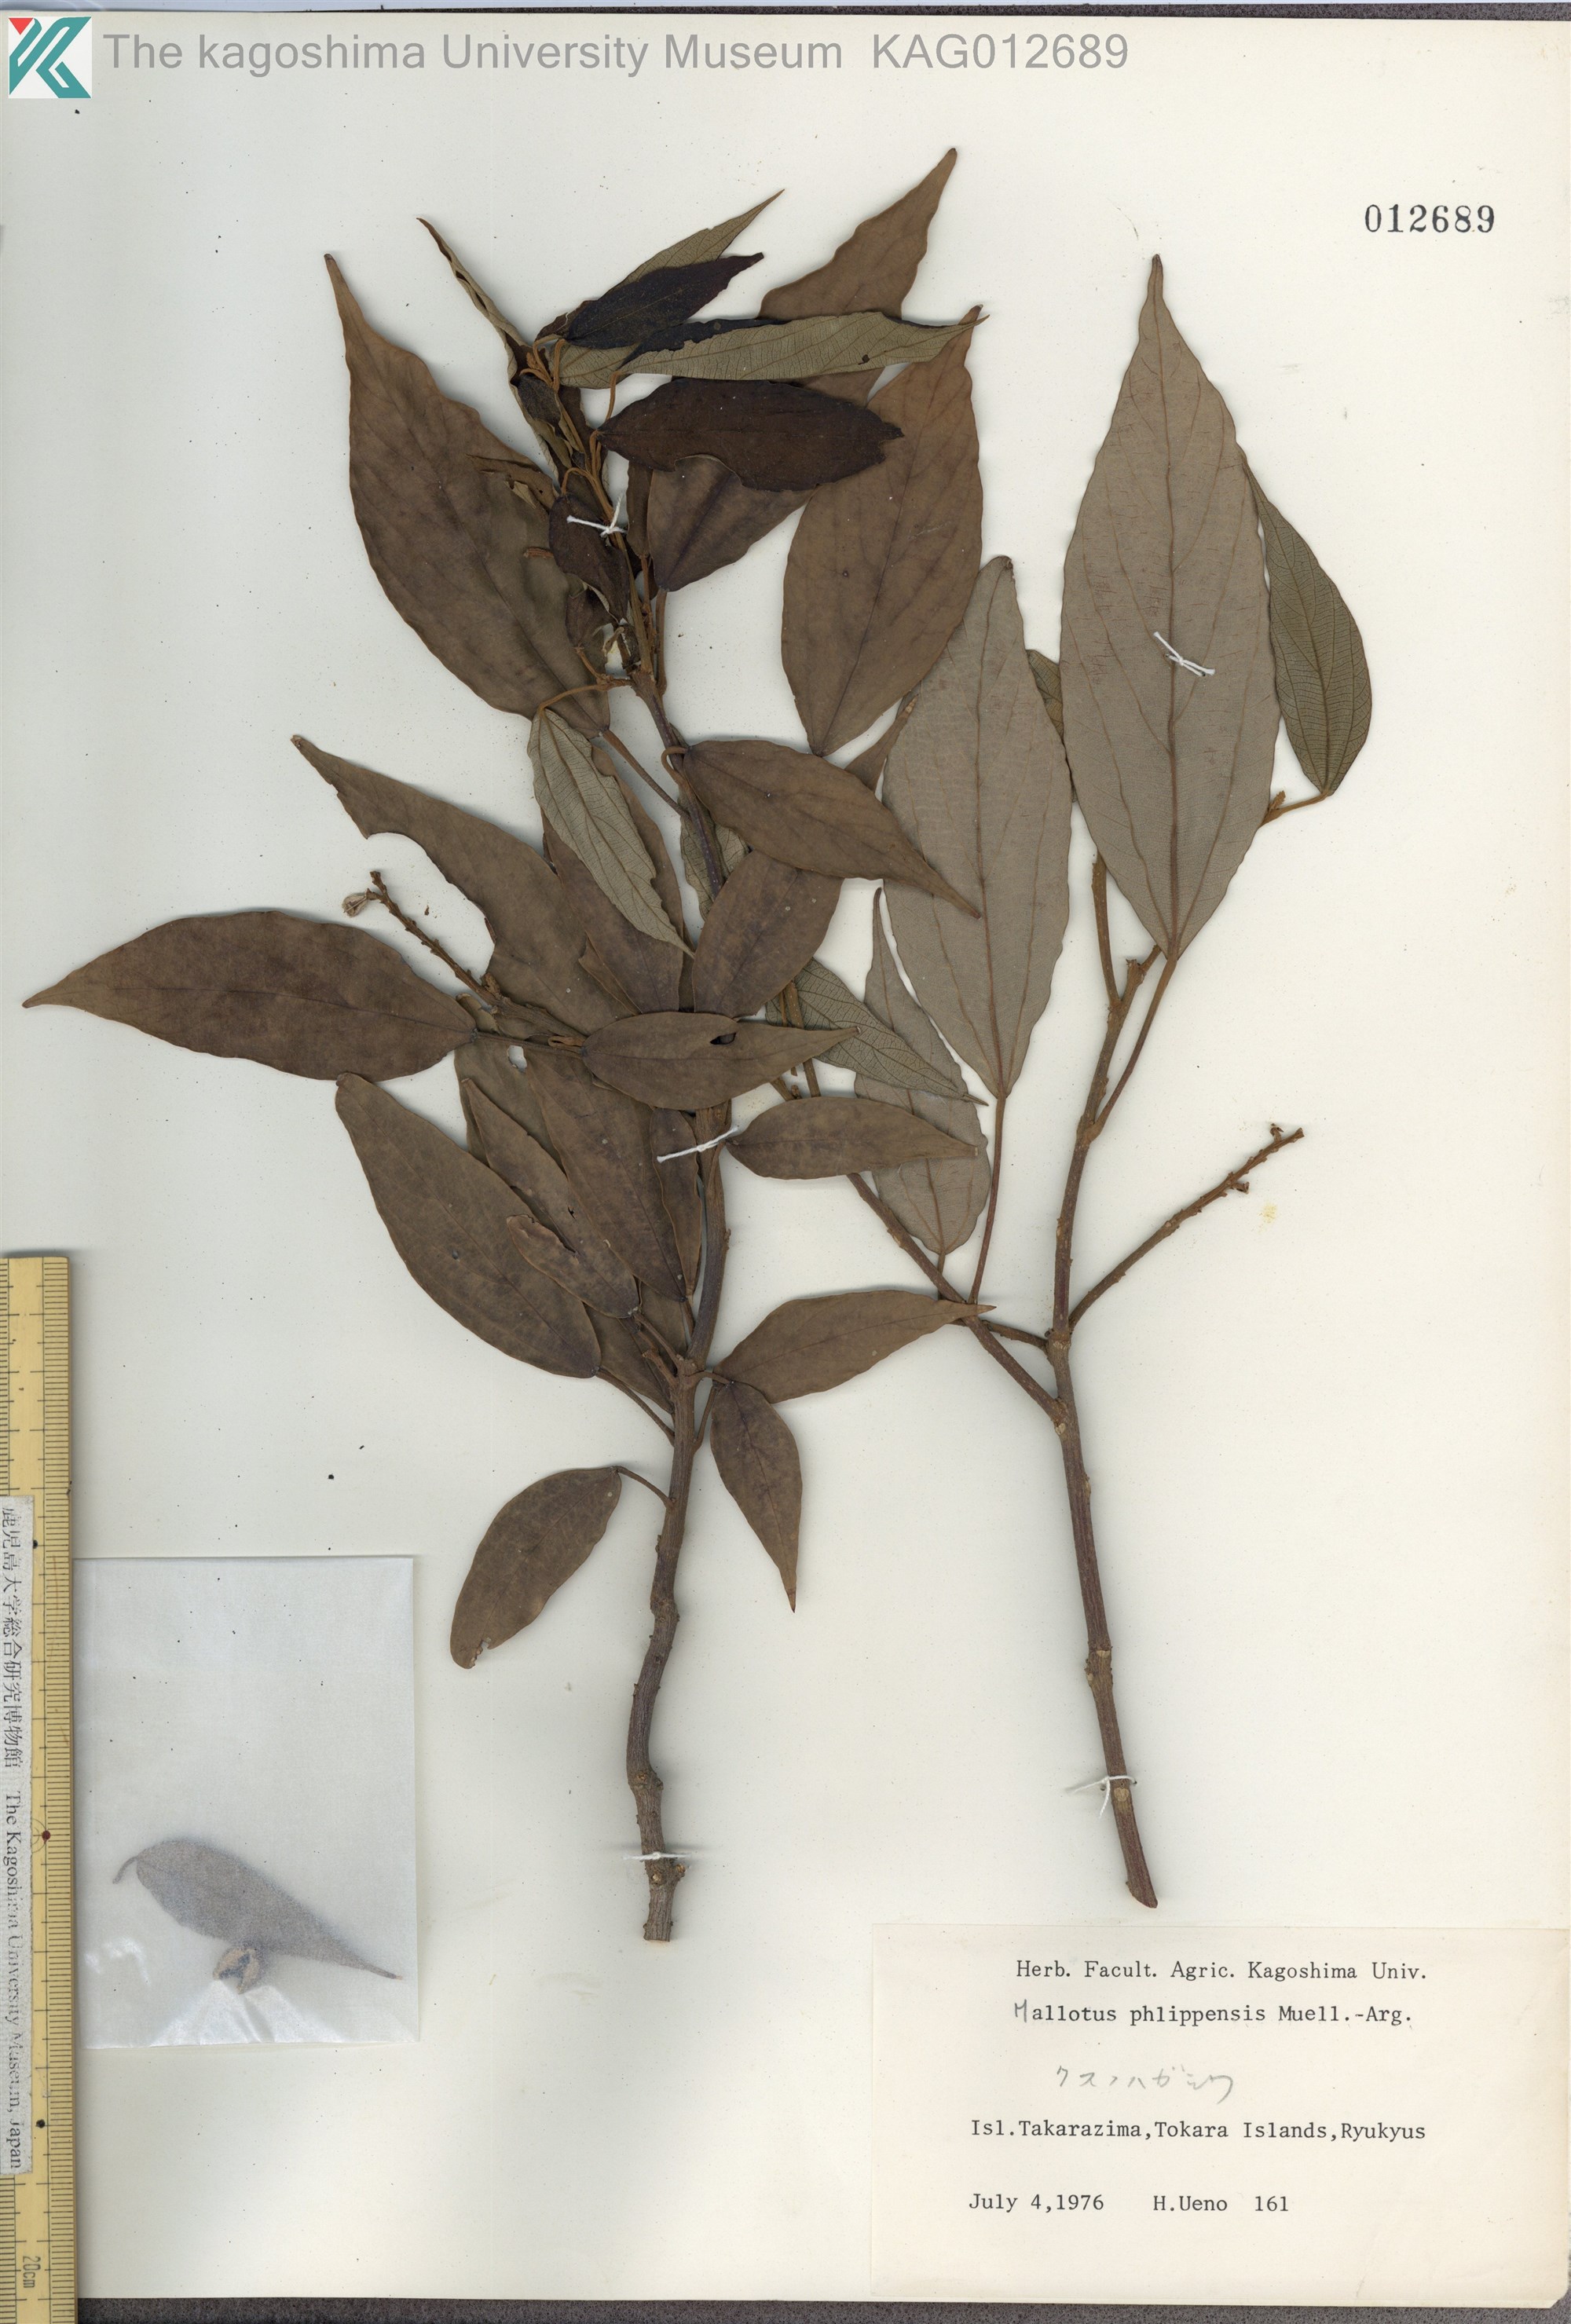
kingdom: Plantae
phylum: Tracheophyta
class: Magnoliopsida
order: Malpighiales
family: Euphorbiaceae
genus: Mallotus
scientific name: Mallotus philippensis
